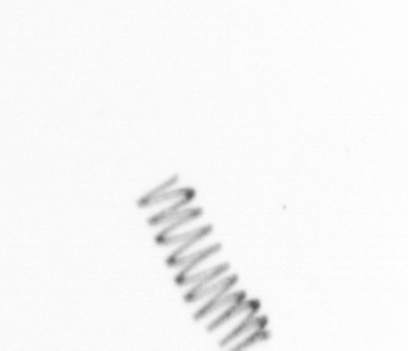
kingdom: Chromista
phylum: Ochrophyta
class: Bacillariophyceae
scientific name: Bacillariophyceae
